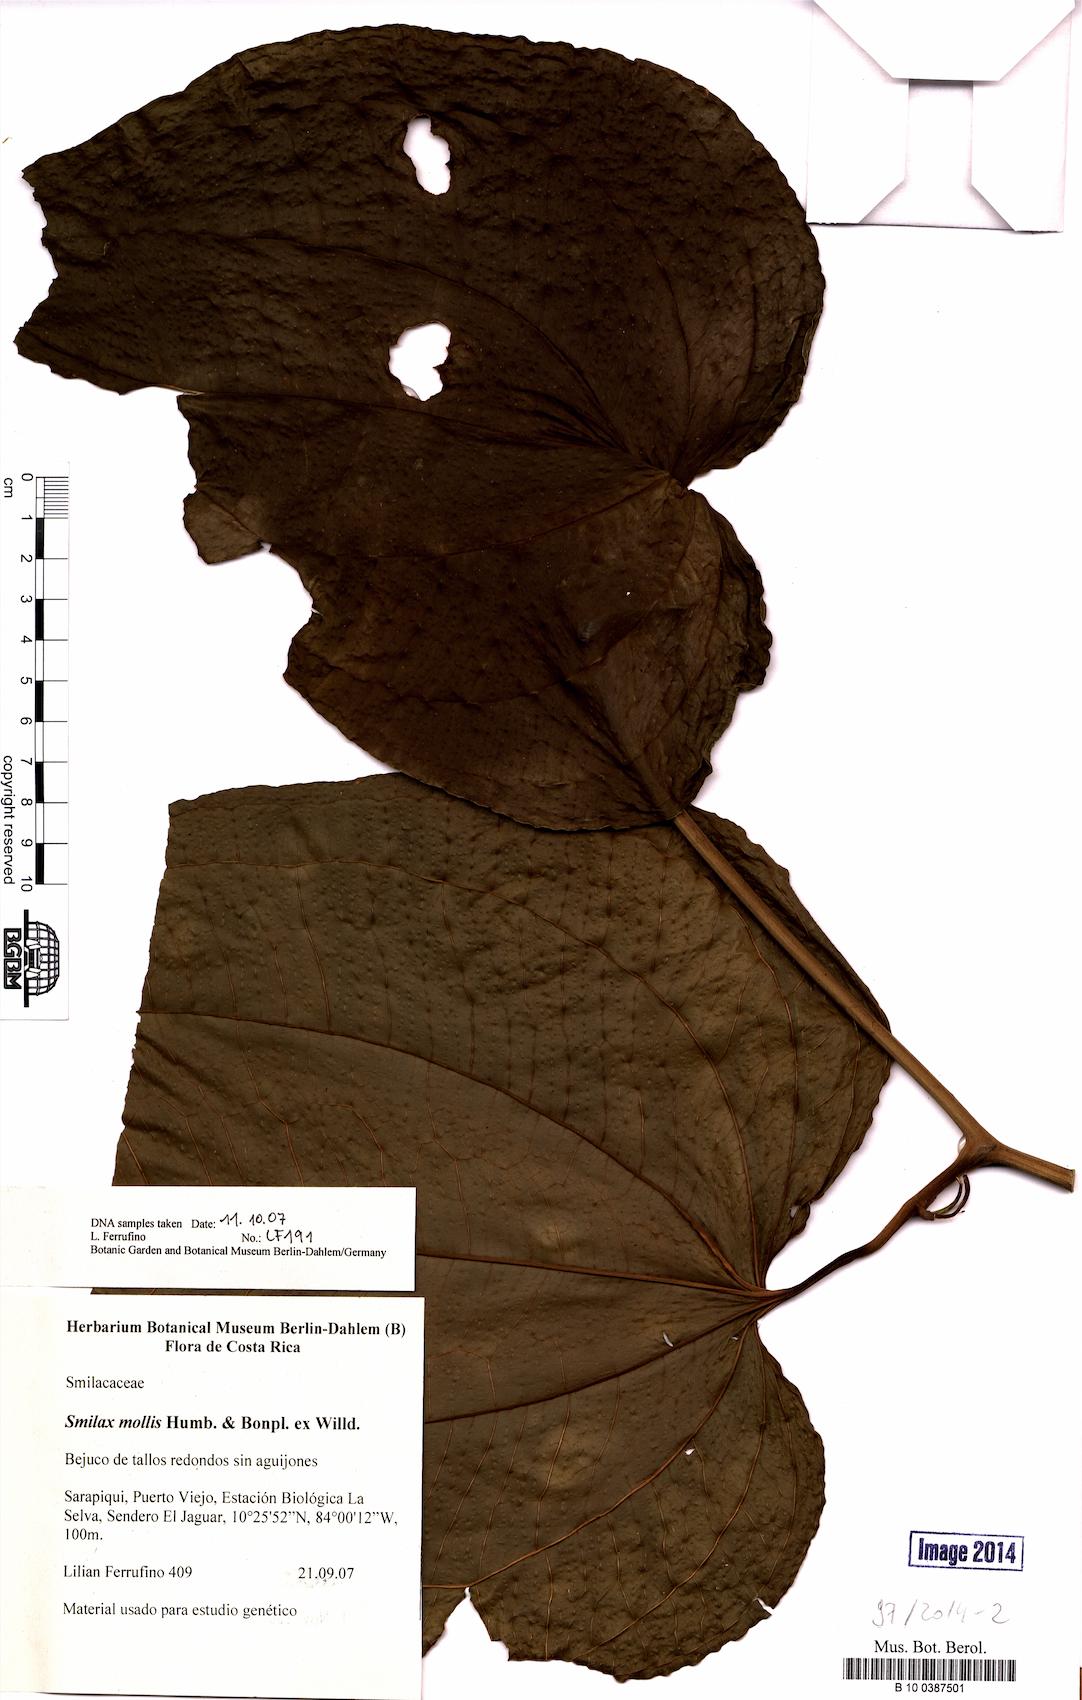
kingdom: Plantae
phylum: Tracheophyta
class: Liliopsida
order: Liliales
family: Smilacaceae
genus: Smilax
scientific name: Smilax mollis
